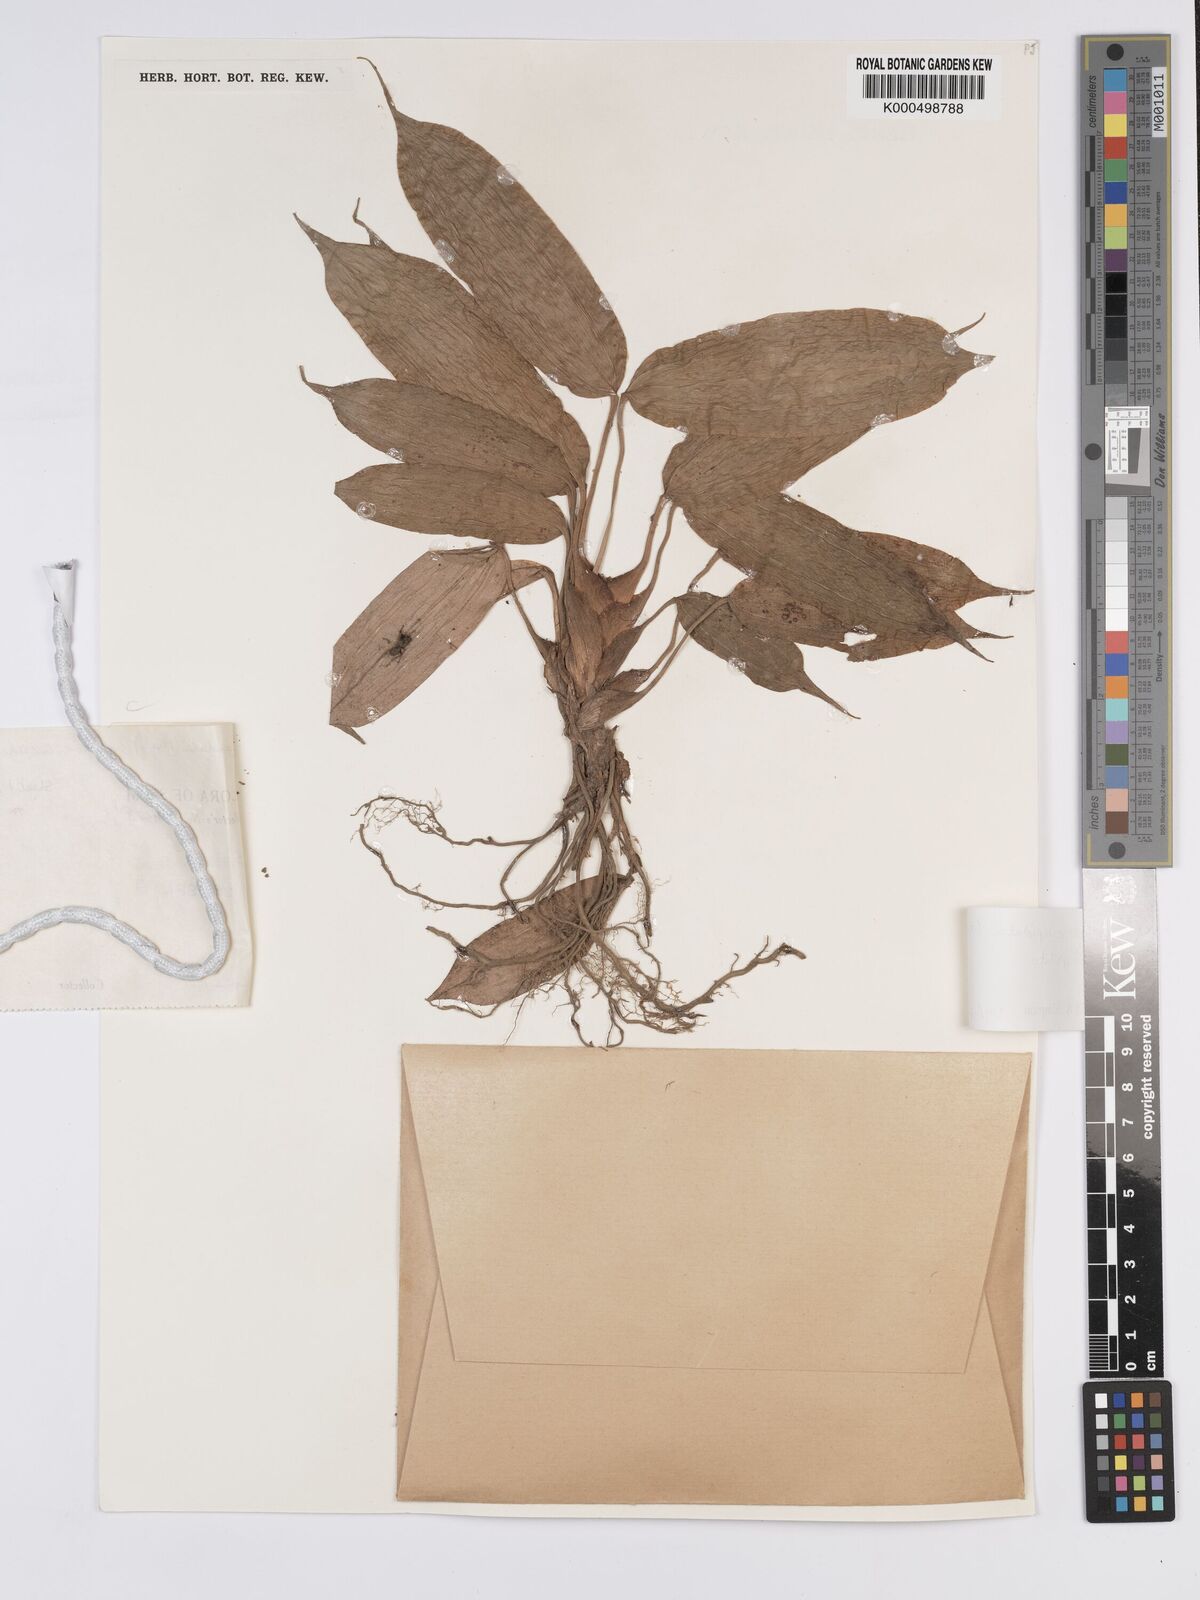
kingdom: Plantae
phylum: Tracheophyta
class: Liliopsida
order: Poales
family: Cyperaceae
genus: Mapania
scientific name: Mapania cuspidata
